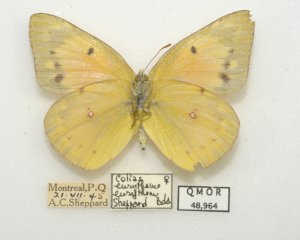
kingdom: Animalia
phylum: Arthropoda
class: Insecta
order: Lepidoptera
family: Pieridae
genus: Colias
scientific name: Colias eurytheme
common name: Orange Sulphur
